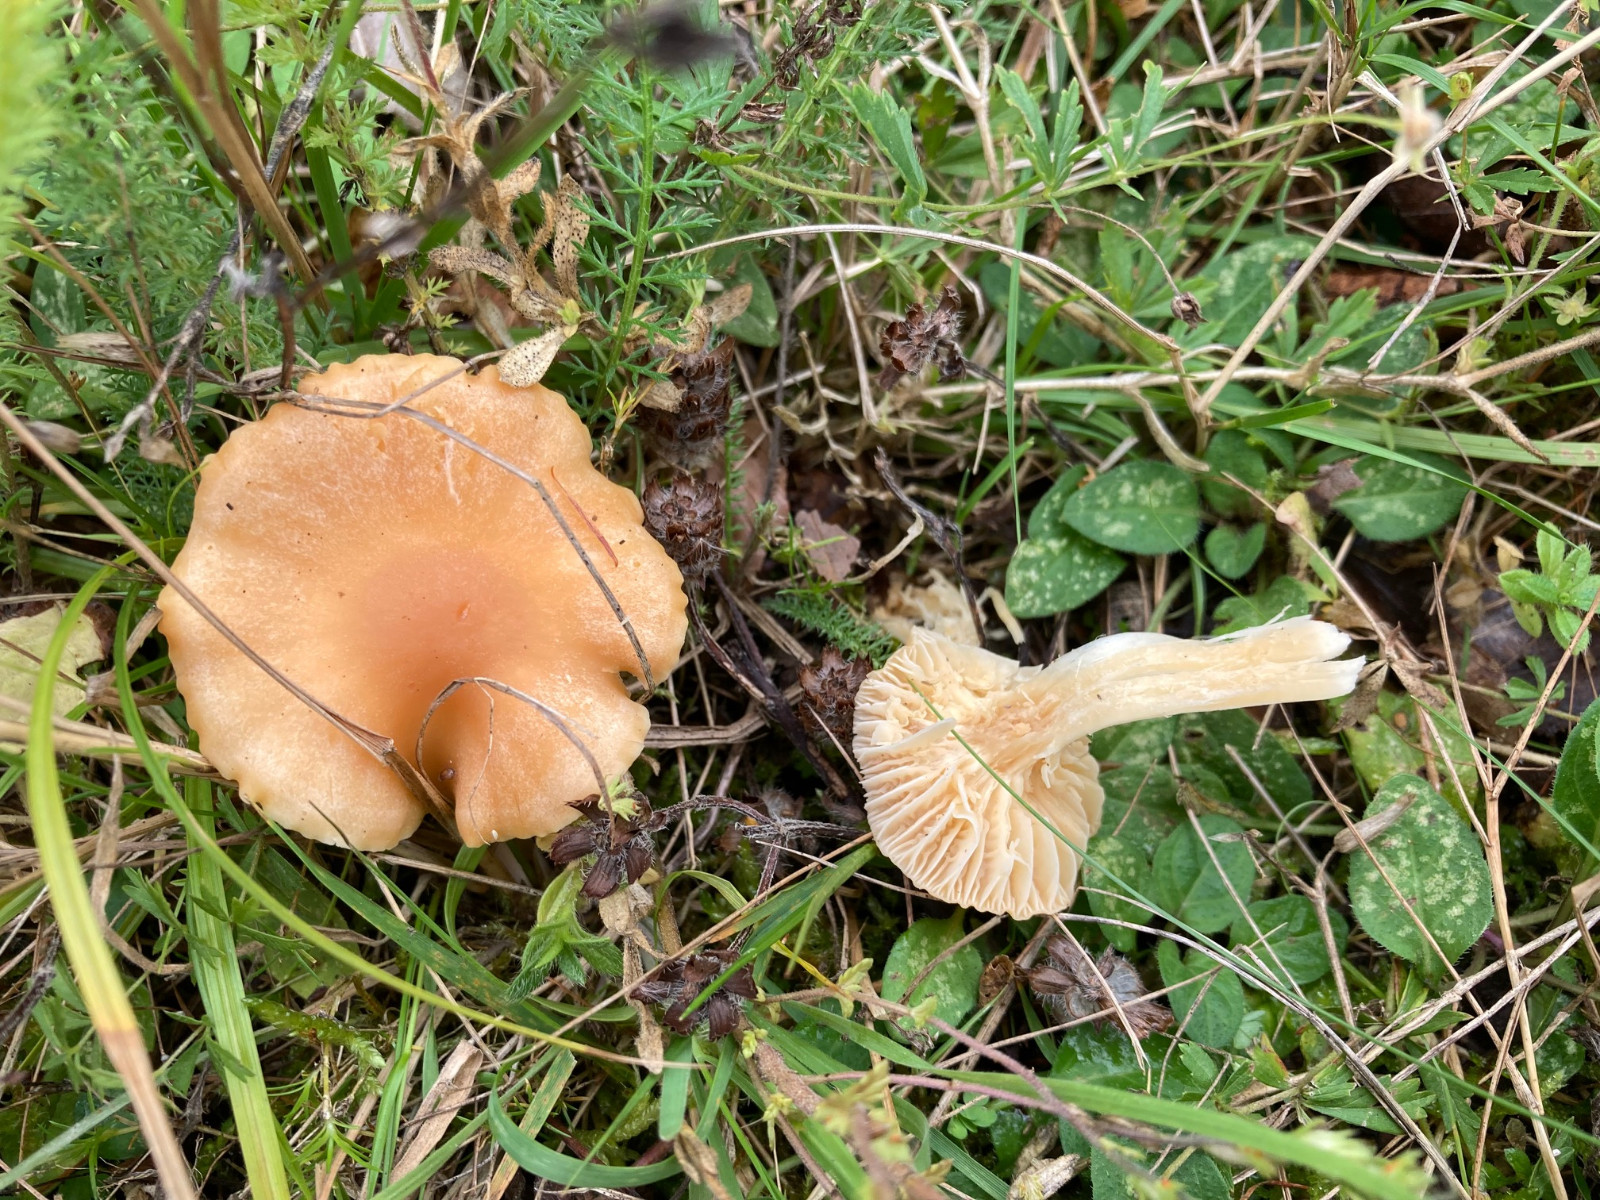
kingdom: Fungi
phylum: Basidiomycota
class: Agaricomycetes
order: Agaricales
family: Hygrophoraceae
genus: Cuphophyllus
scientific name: Cuphophyllus pratensis
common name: eng-vokshat
